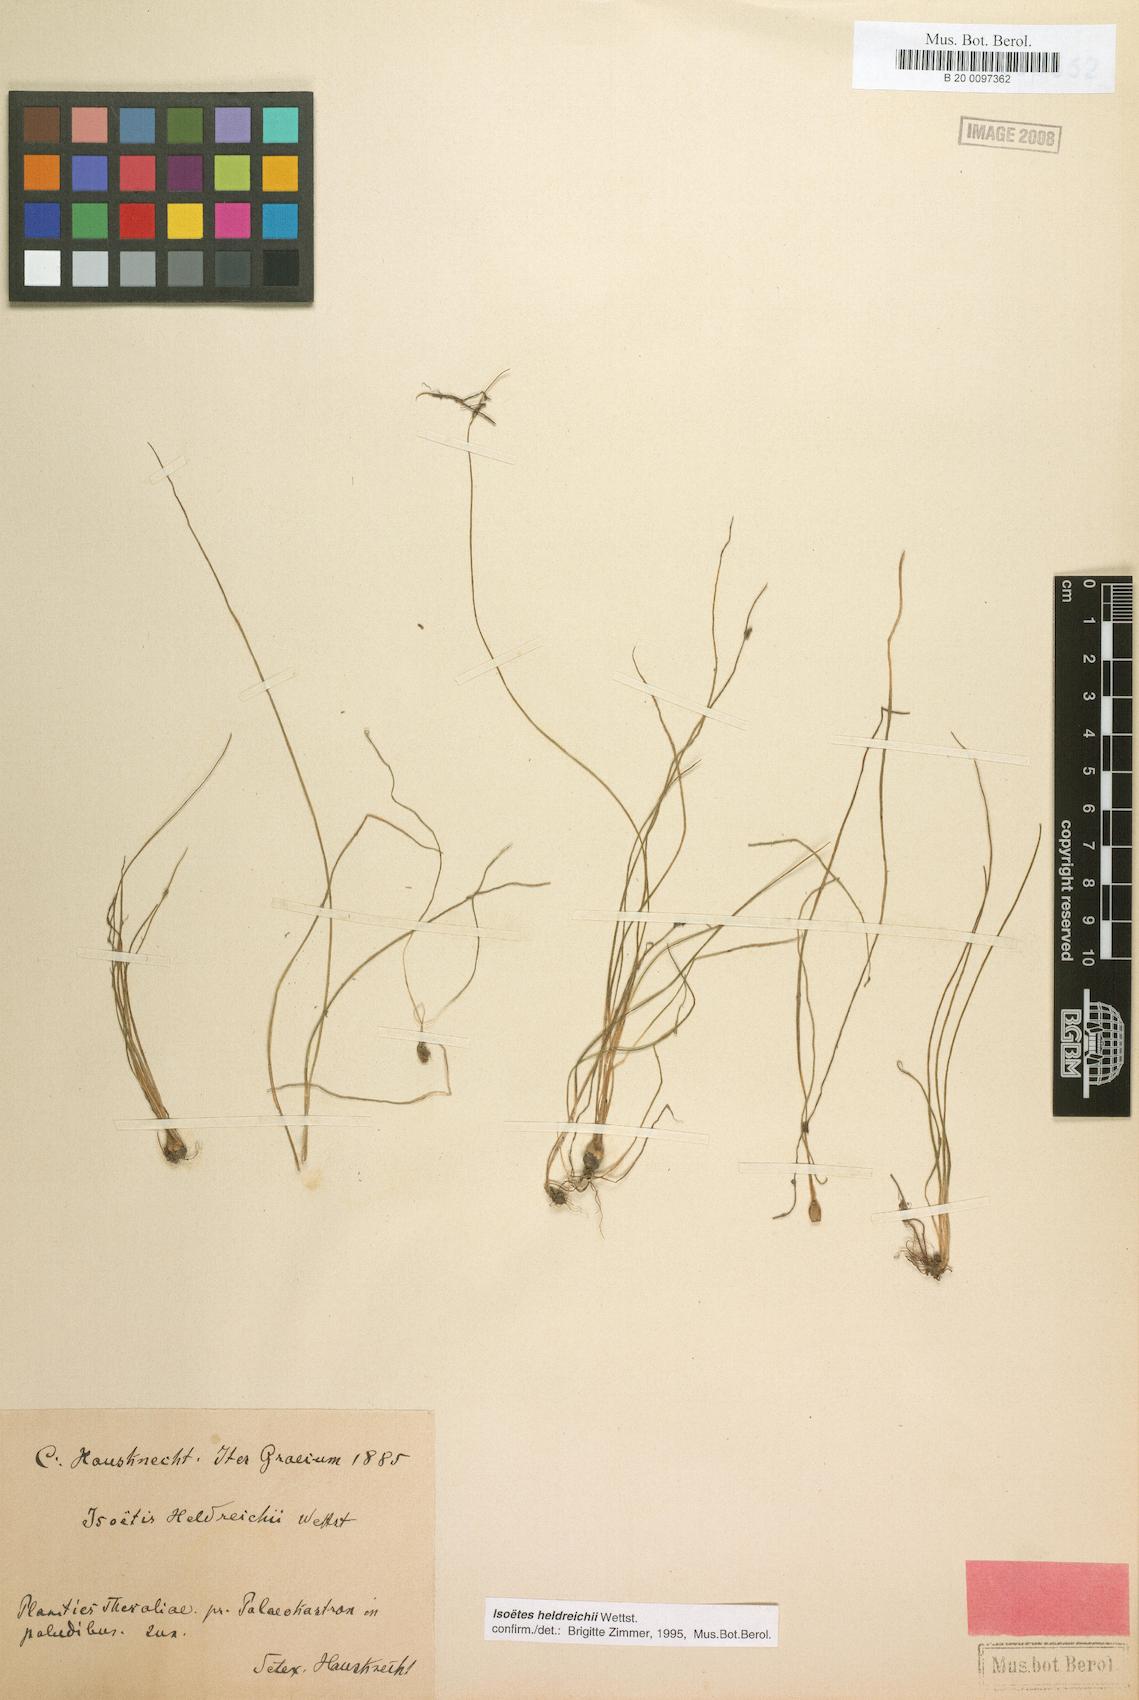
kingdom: Plantae
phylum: Tracheophyta
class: Lycopodiopsida
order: Isoetales
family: Isoetaceae
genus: Isoetes
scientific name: Isoetes heldreichii
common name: Pindus quillwort
